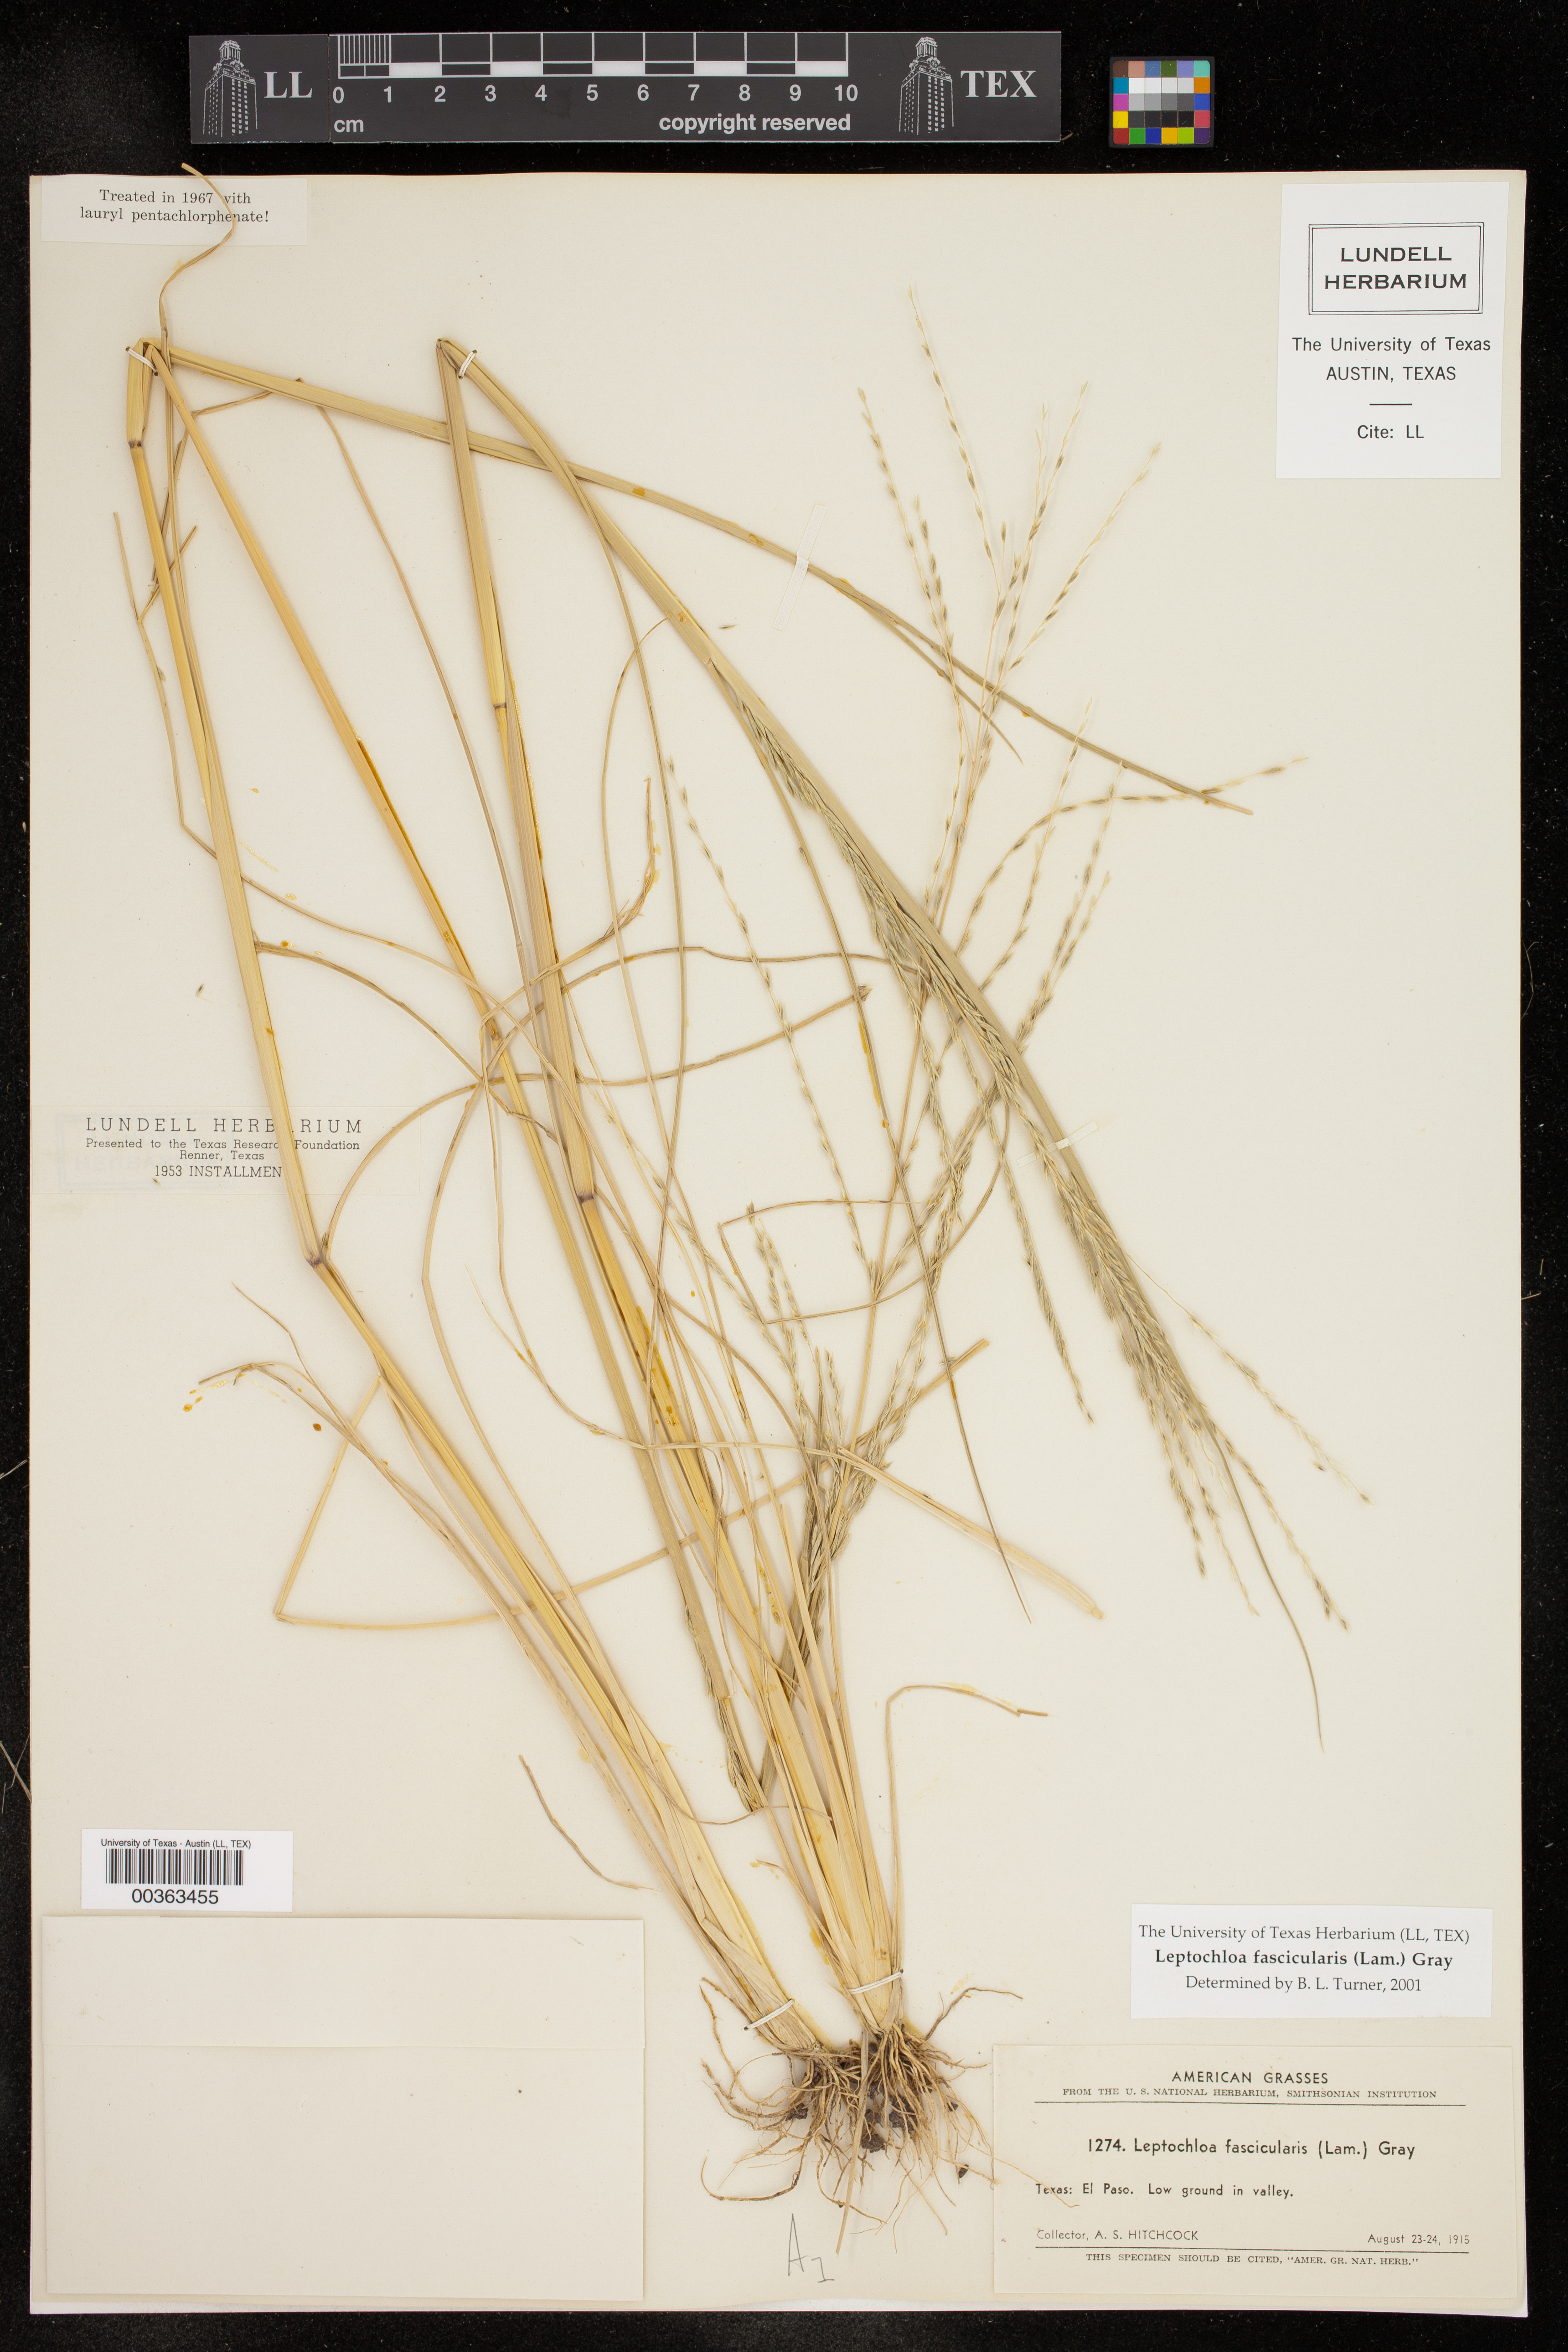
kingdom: Plantae
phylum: Tracheophyta
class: Liliopsida
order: Poales
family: Poaceae
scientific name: Poaceae
